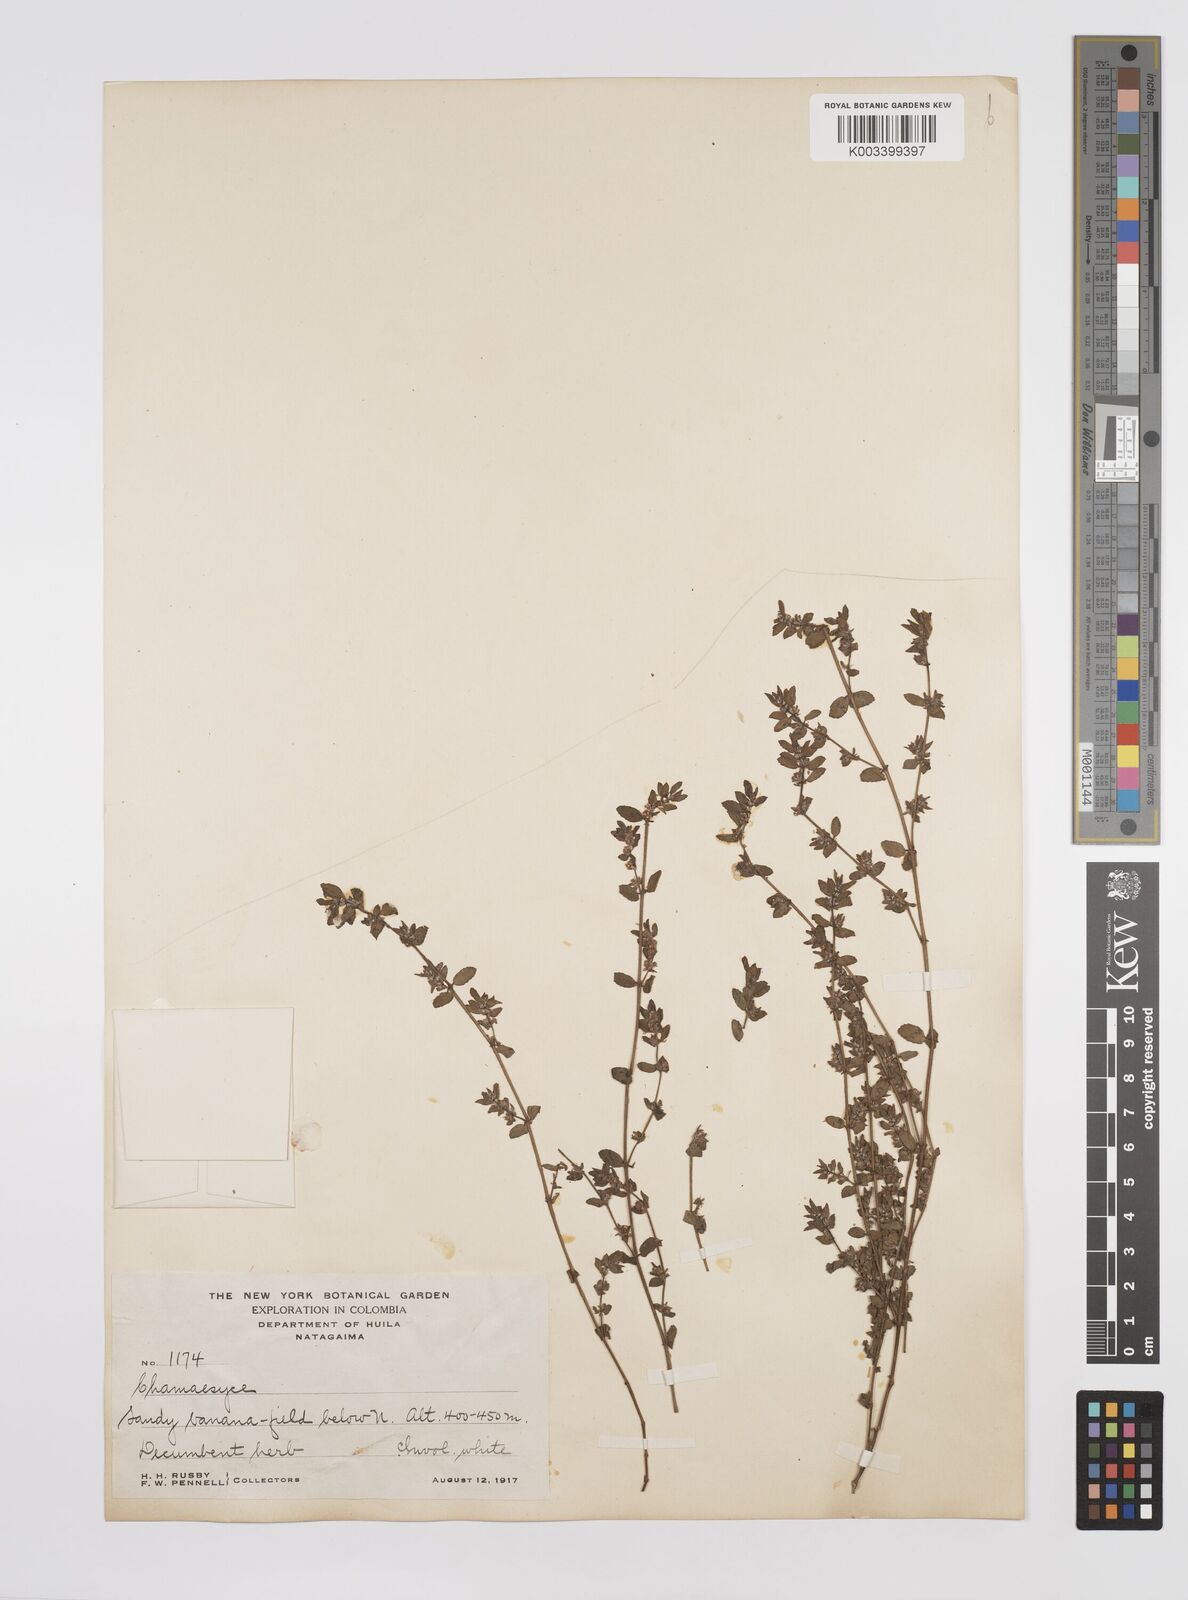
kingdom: Plantae
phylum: Tracheophyta
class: Magnoliopsida
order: Malpighiales
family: Euphorbiaceae
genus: Euphorbia
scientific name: Euphorbia
